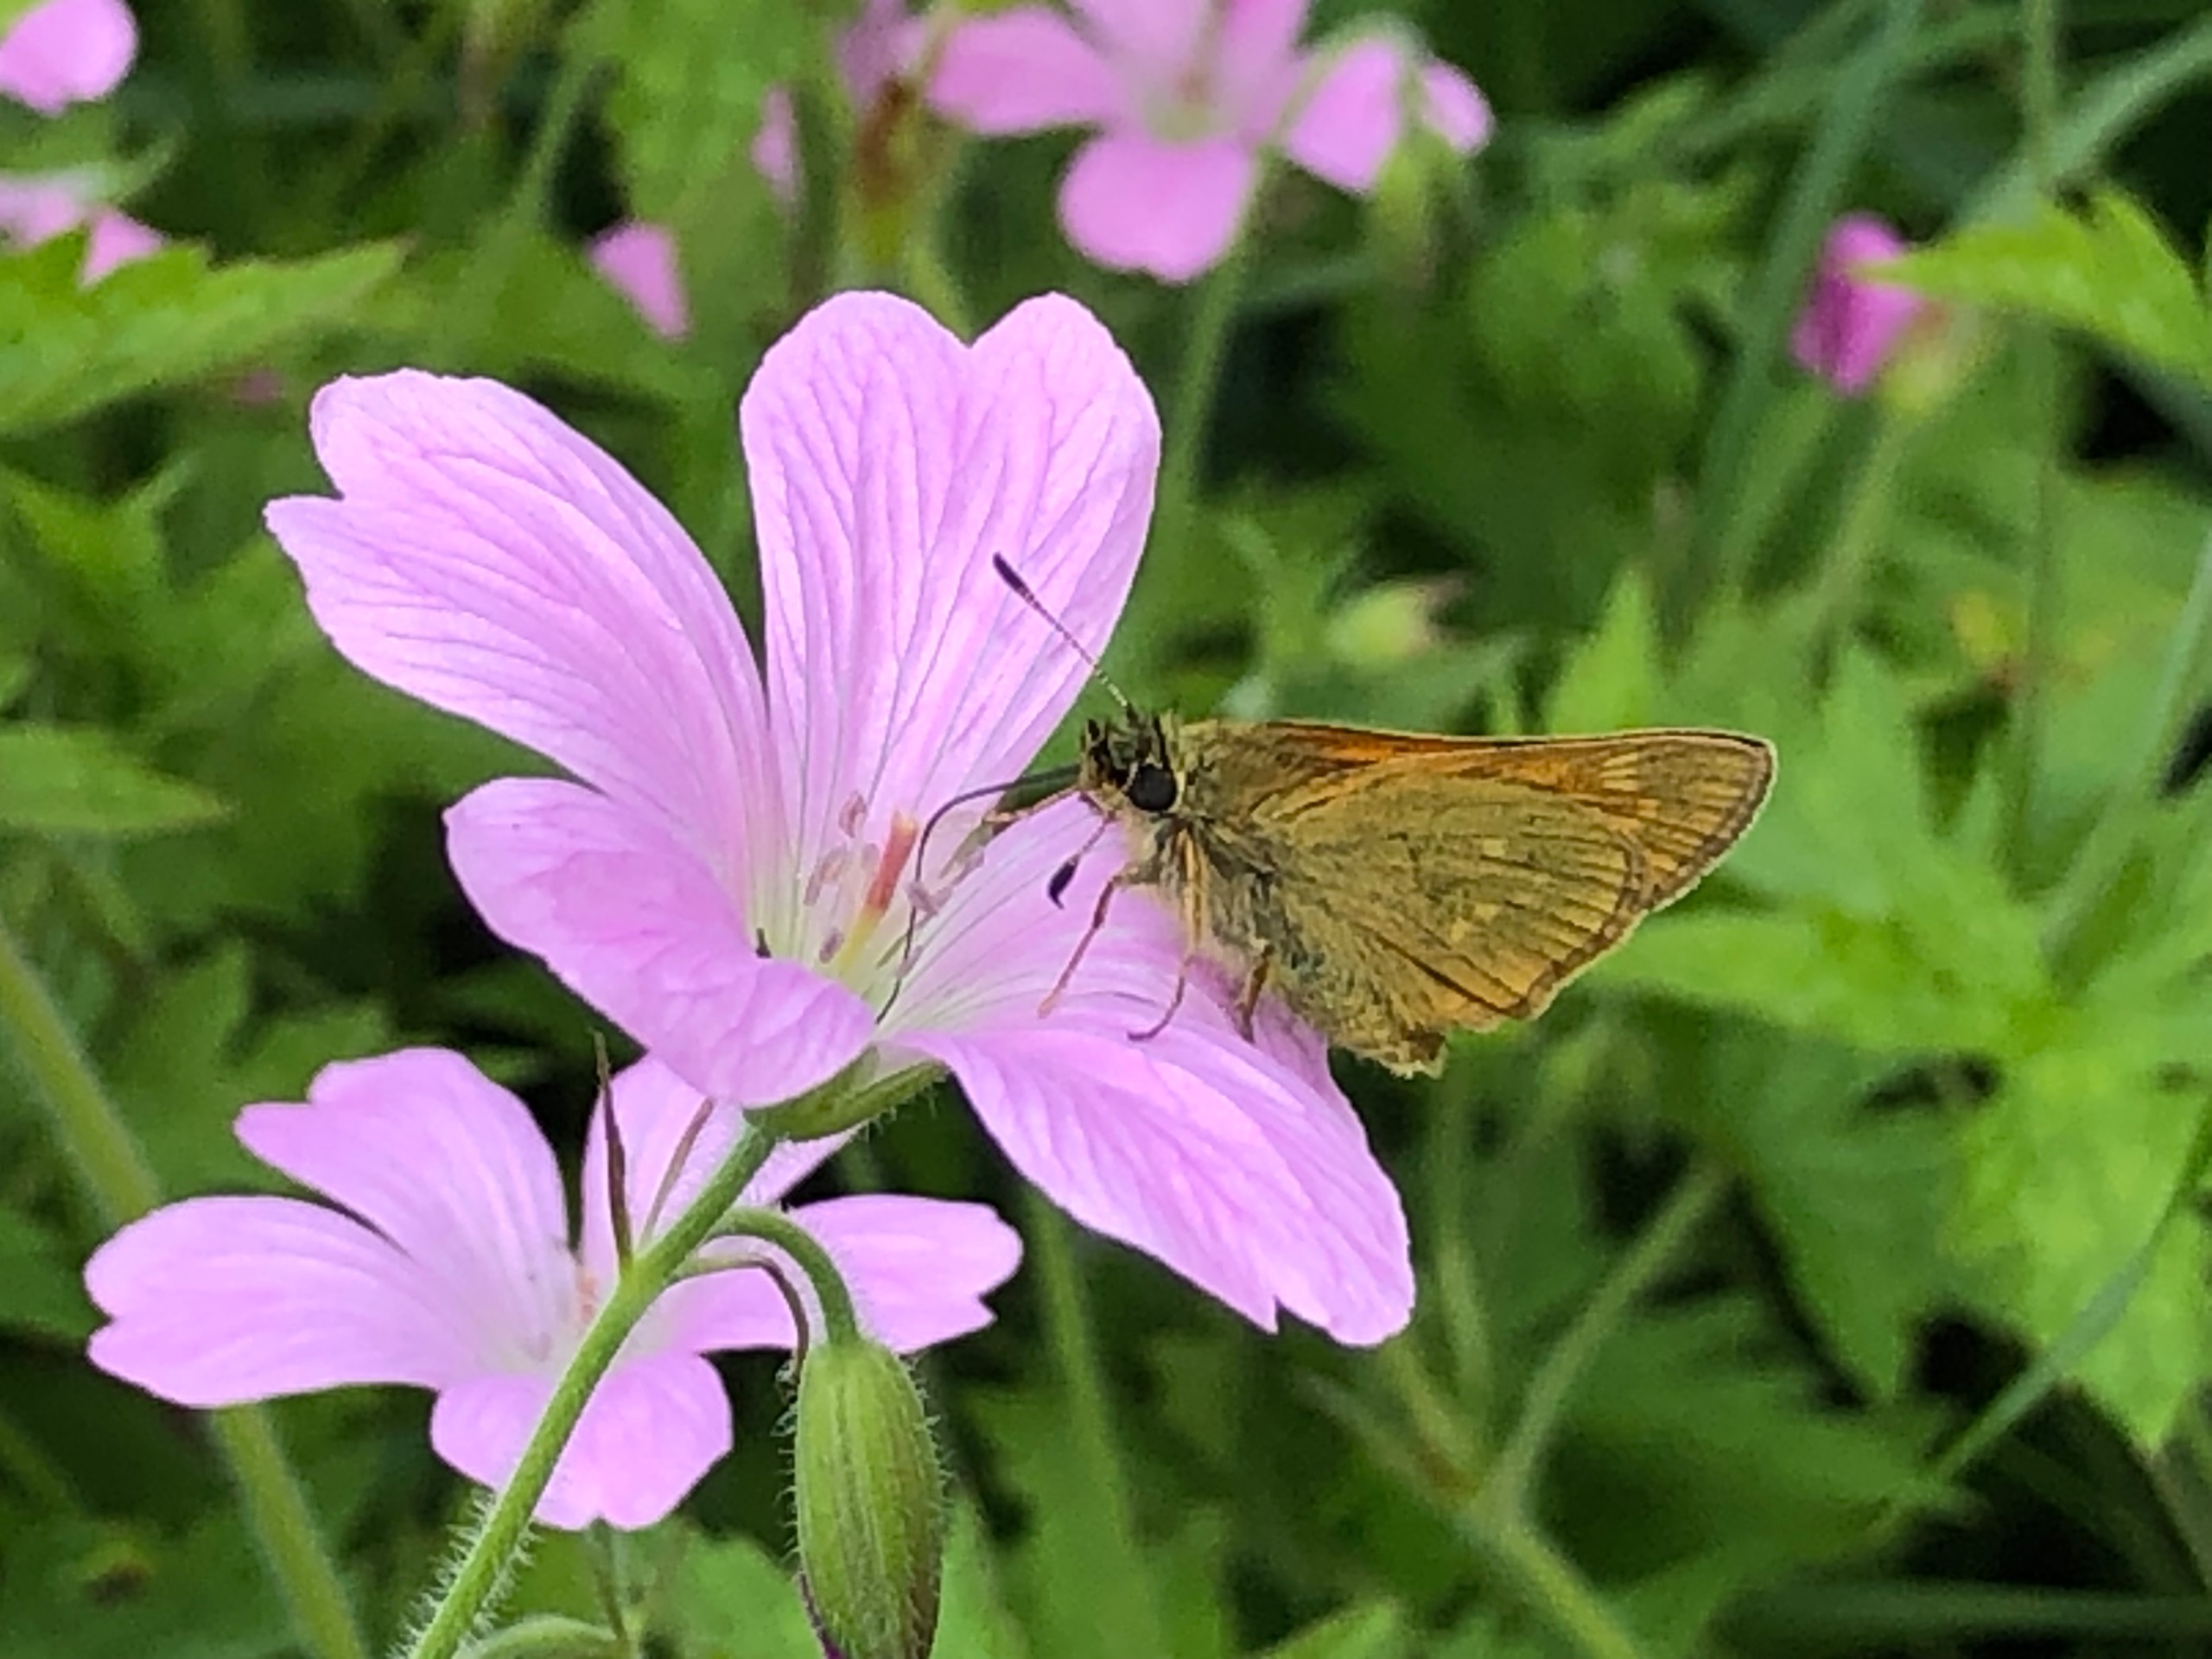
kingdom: Animalia
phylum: Arthropoda
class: Insecta
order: Lepidoptera
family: Hesperiidae
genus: Ochlodes
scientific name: Ochlodes venata
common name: Stor bredpande
